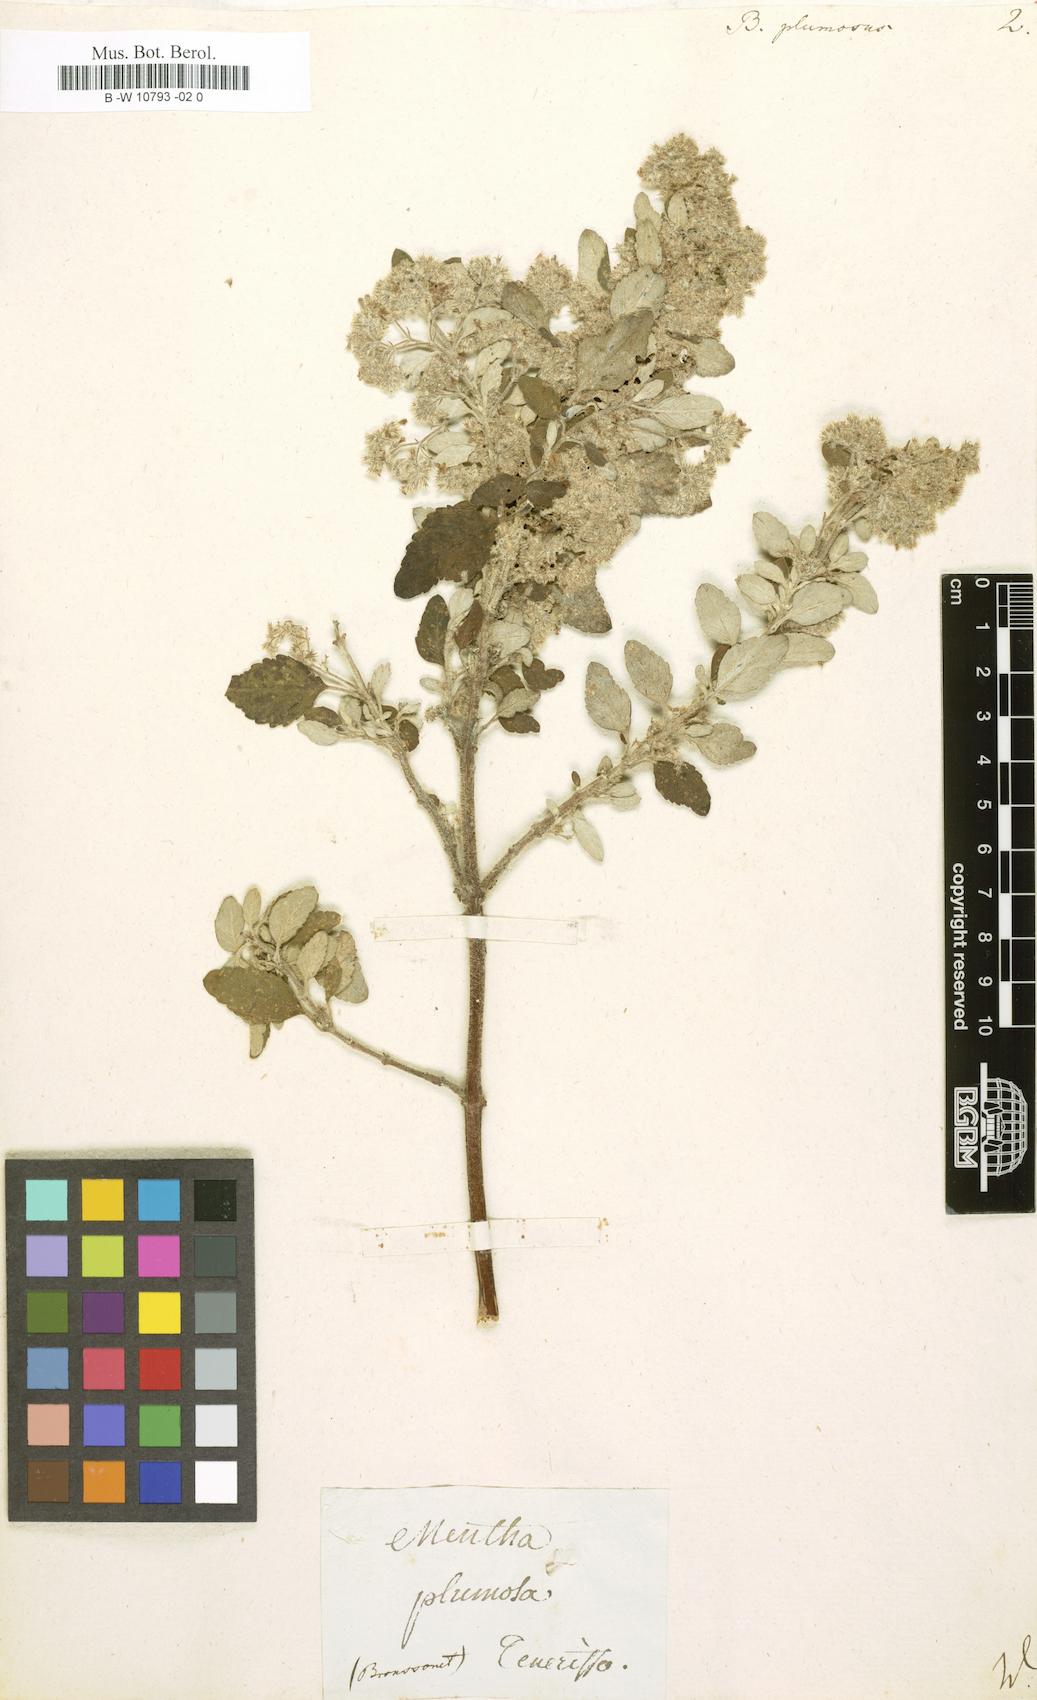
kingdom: Plantae
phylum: Tracheophyta
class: Magnoliopsida
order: Lamiales
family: Lamiaceae
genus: Bystropogon
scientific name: Bystropogon plumosus
